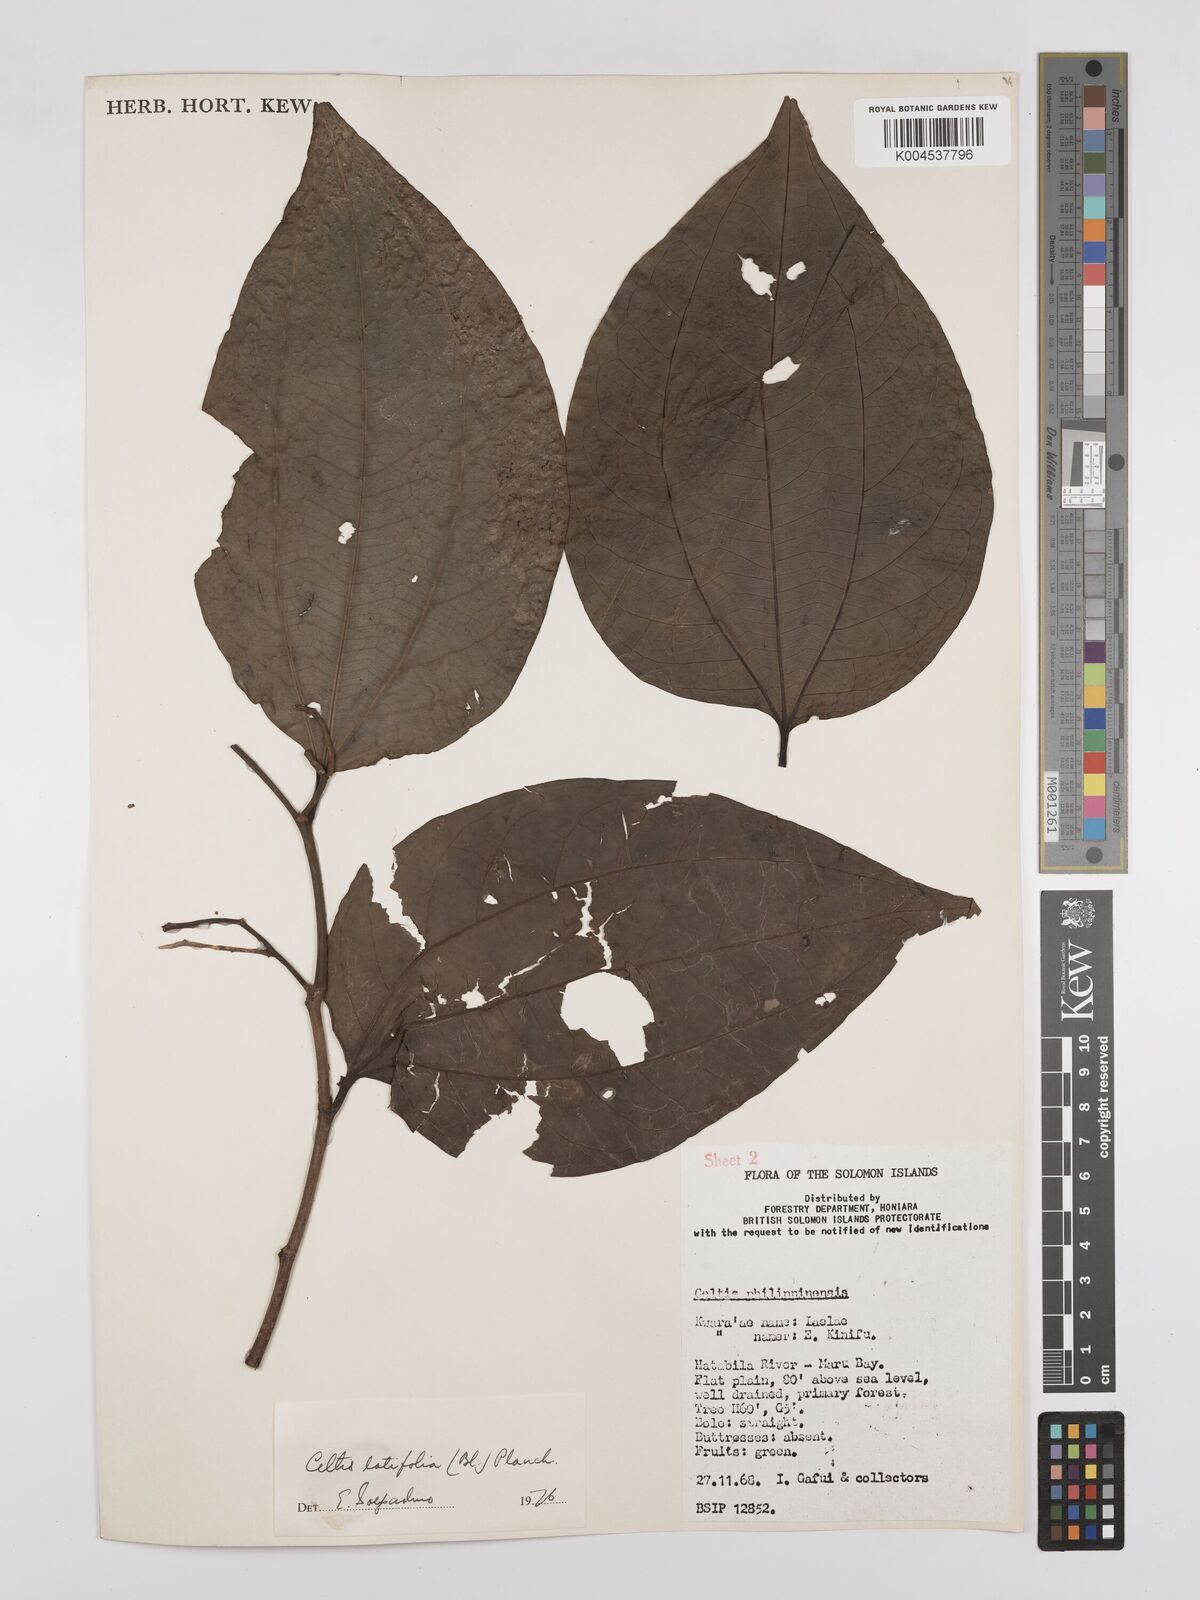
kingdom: Plantae
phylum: Tracheophyta
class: Magnoliopsida
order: Rosales
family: Cannabaceae
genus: Celtis
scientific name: Celtis latifolia
